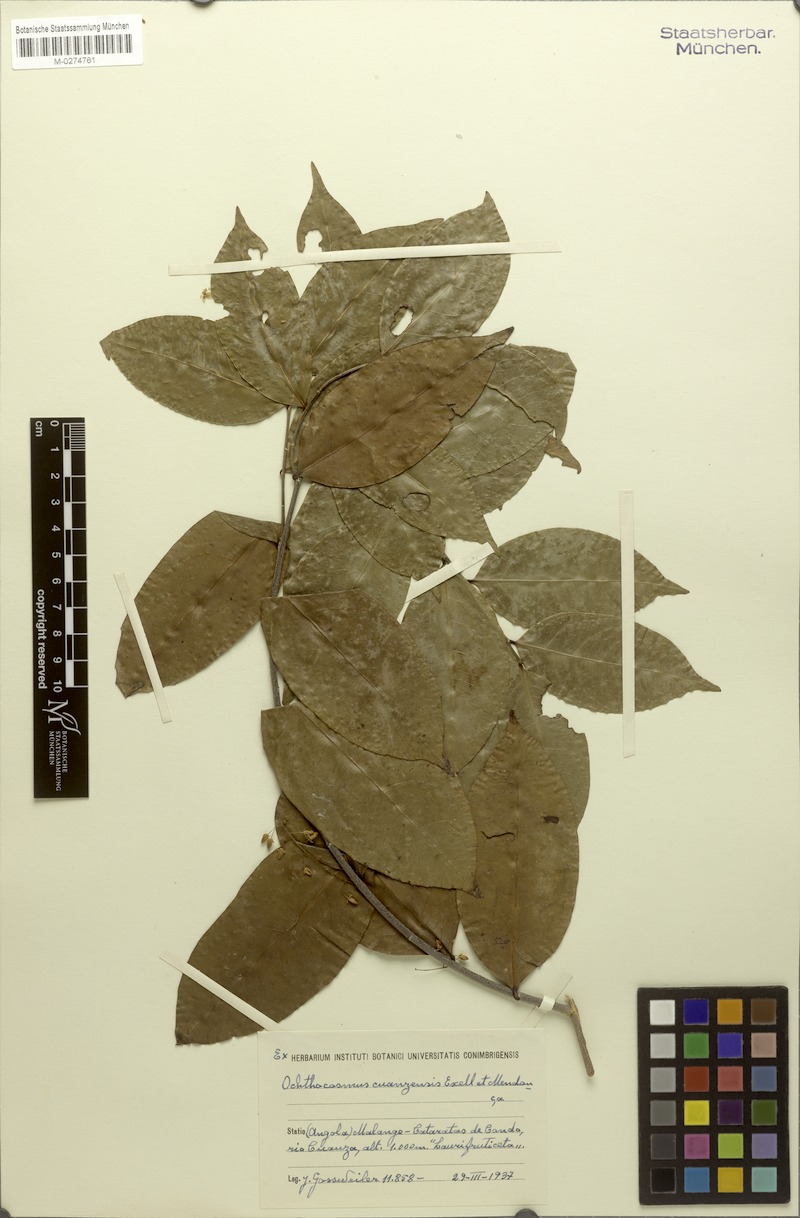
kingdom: Plantae
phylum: Tracheophyta
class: Magnoliopsida
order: Malpighiales
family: Ixonanthaceae
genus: Phyllocosmus
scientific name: Phyllocosmus congolensis
